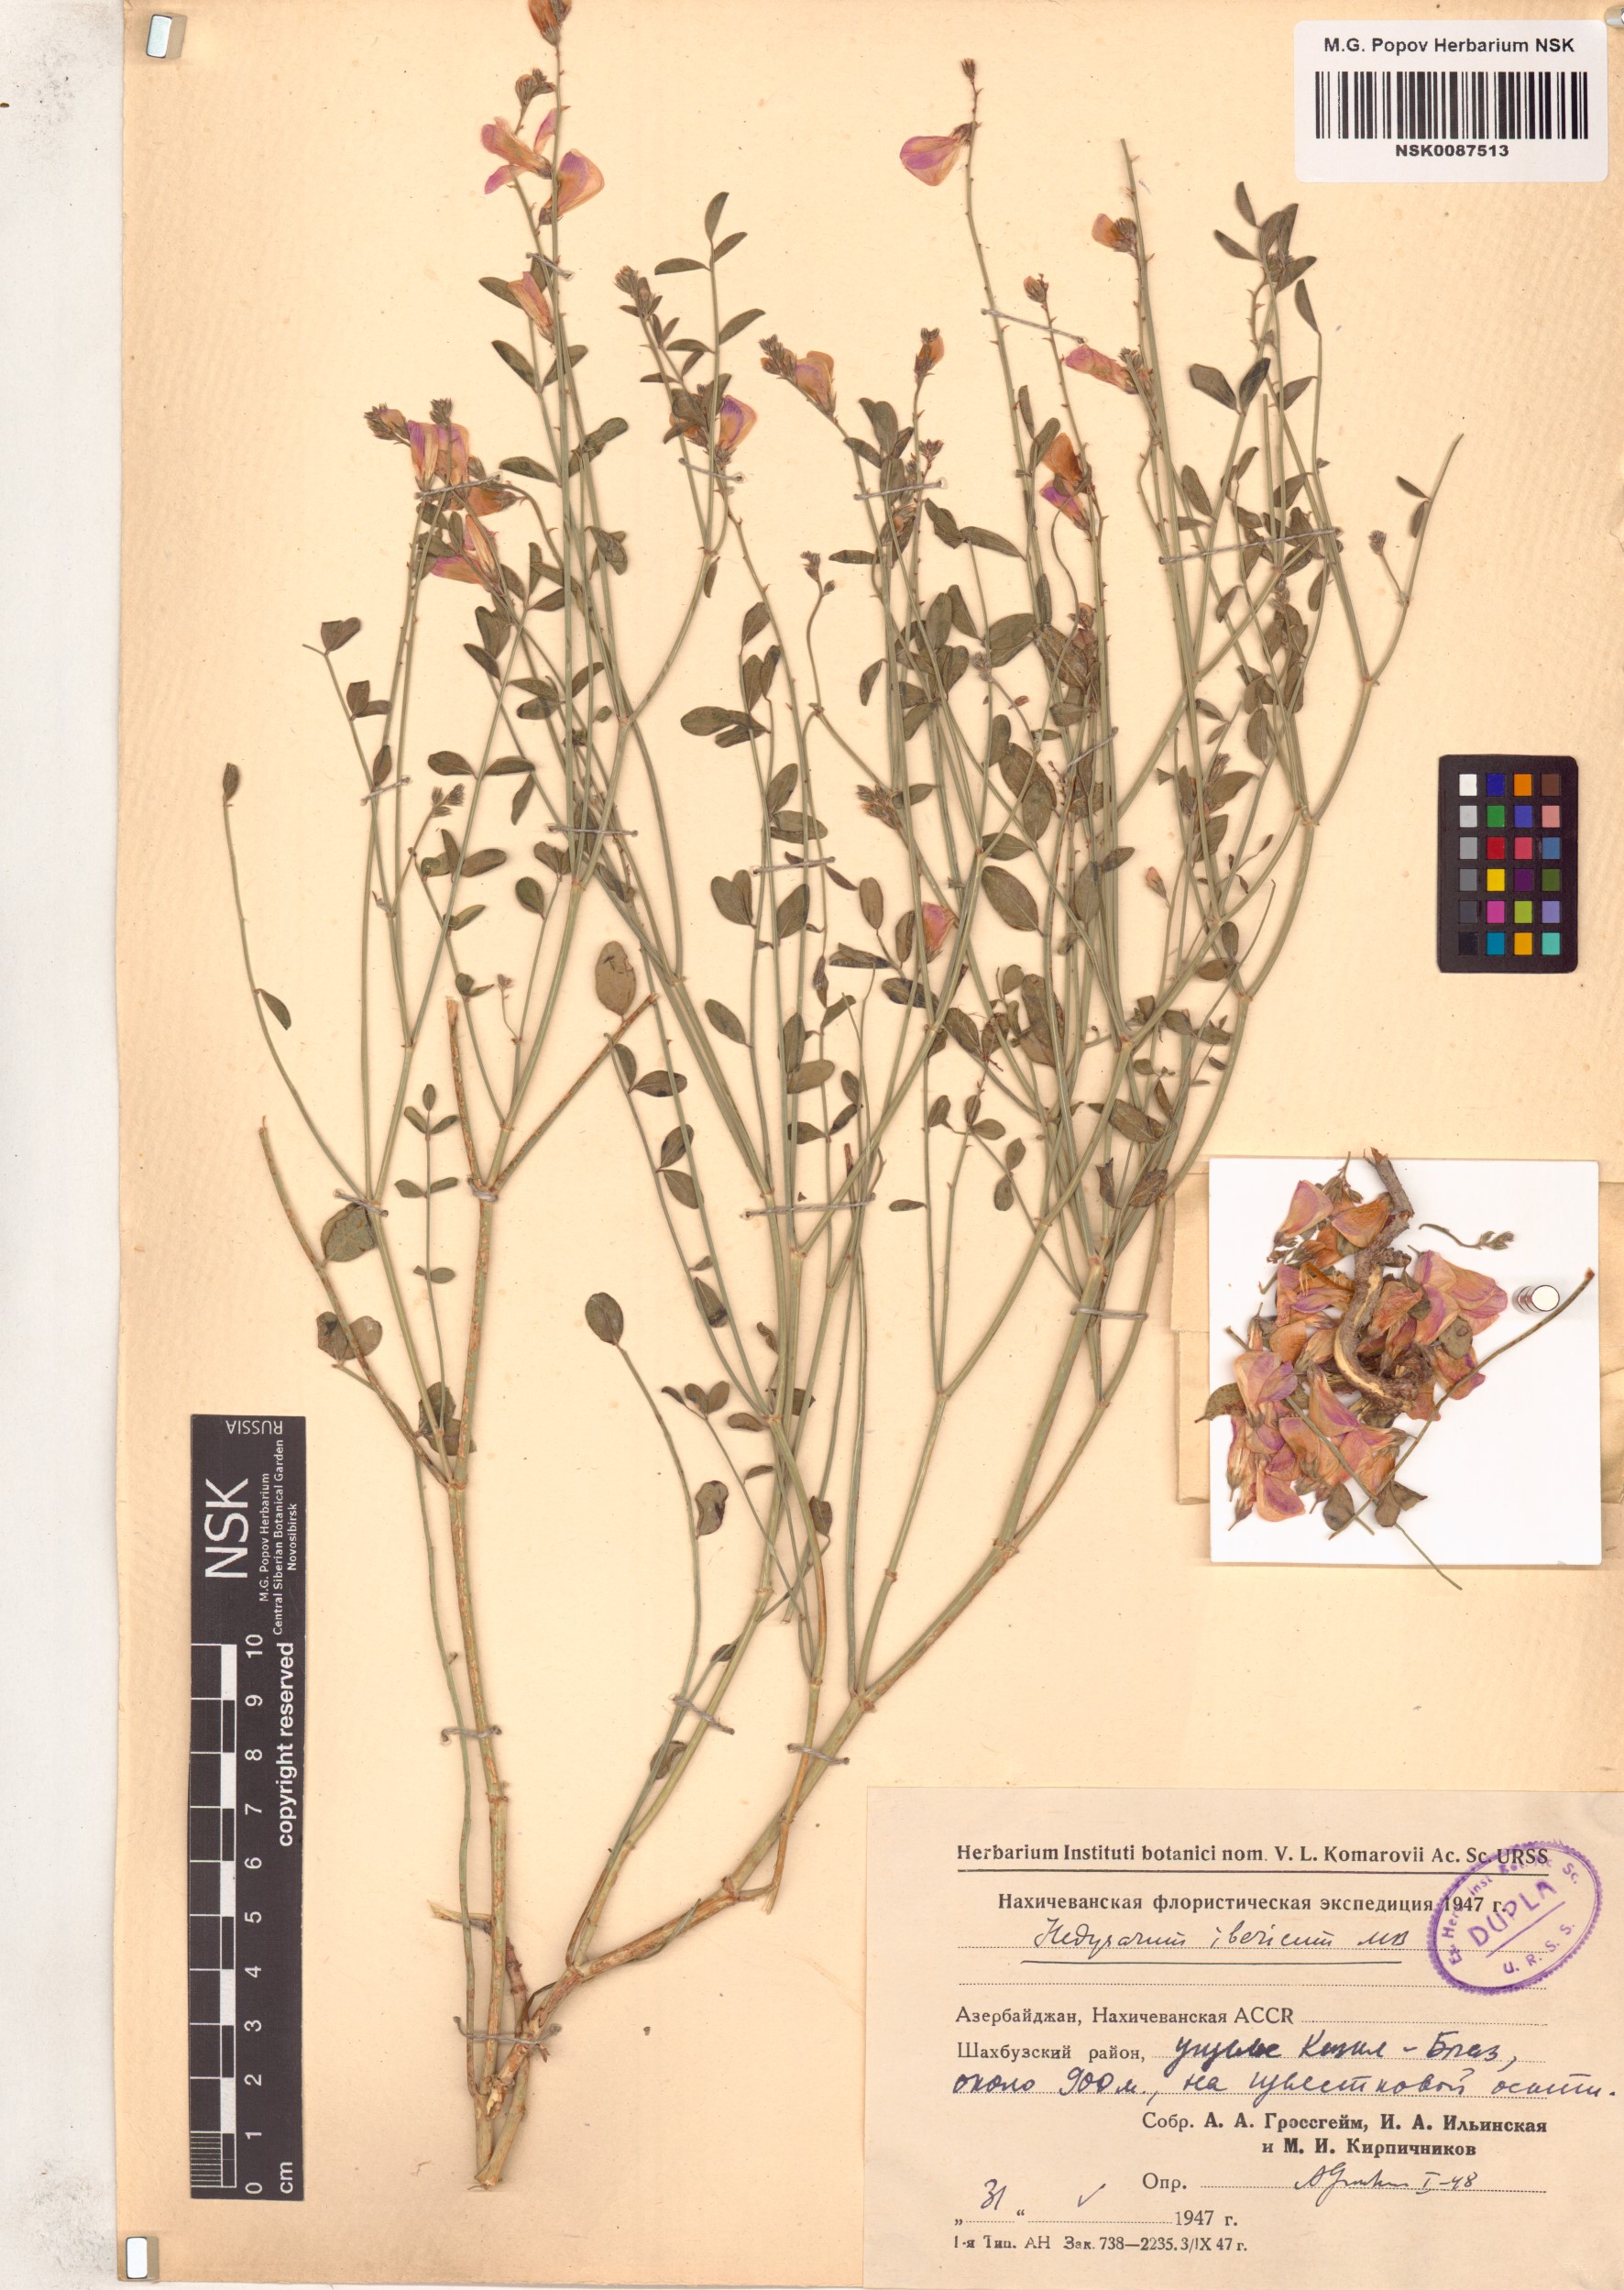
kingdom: Plantae
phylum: Tracheophyta
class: Magnoliopsida
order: Fabales
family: Fabaceae
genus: Hedysarum
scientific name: Hedysarum ibericum
